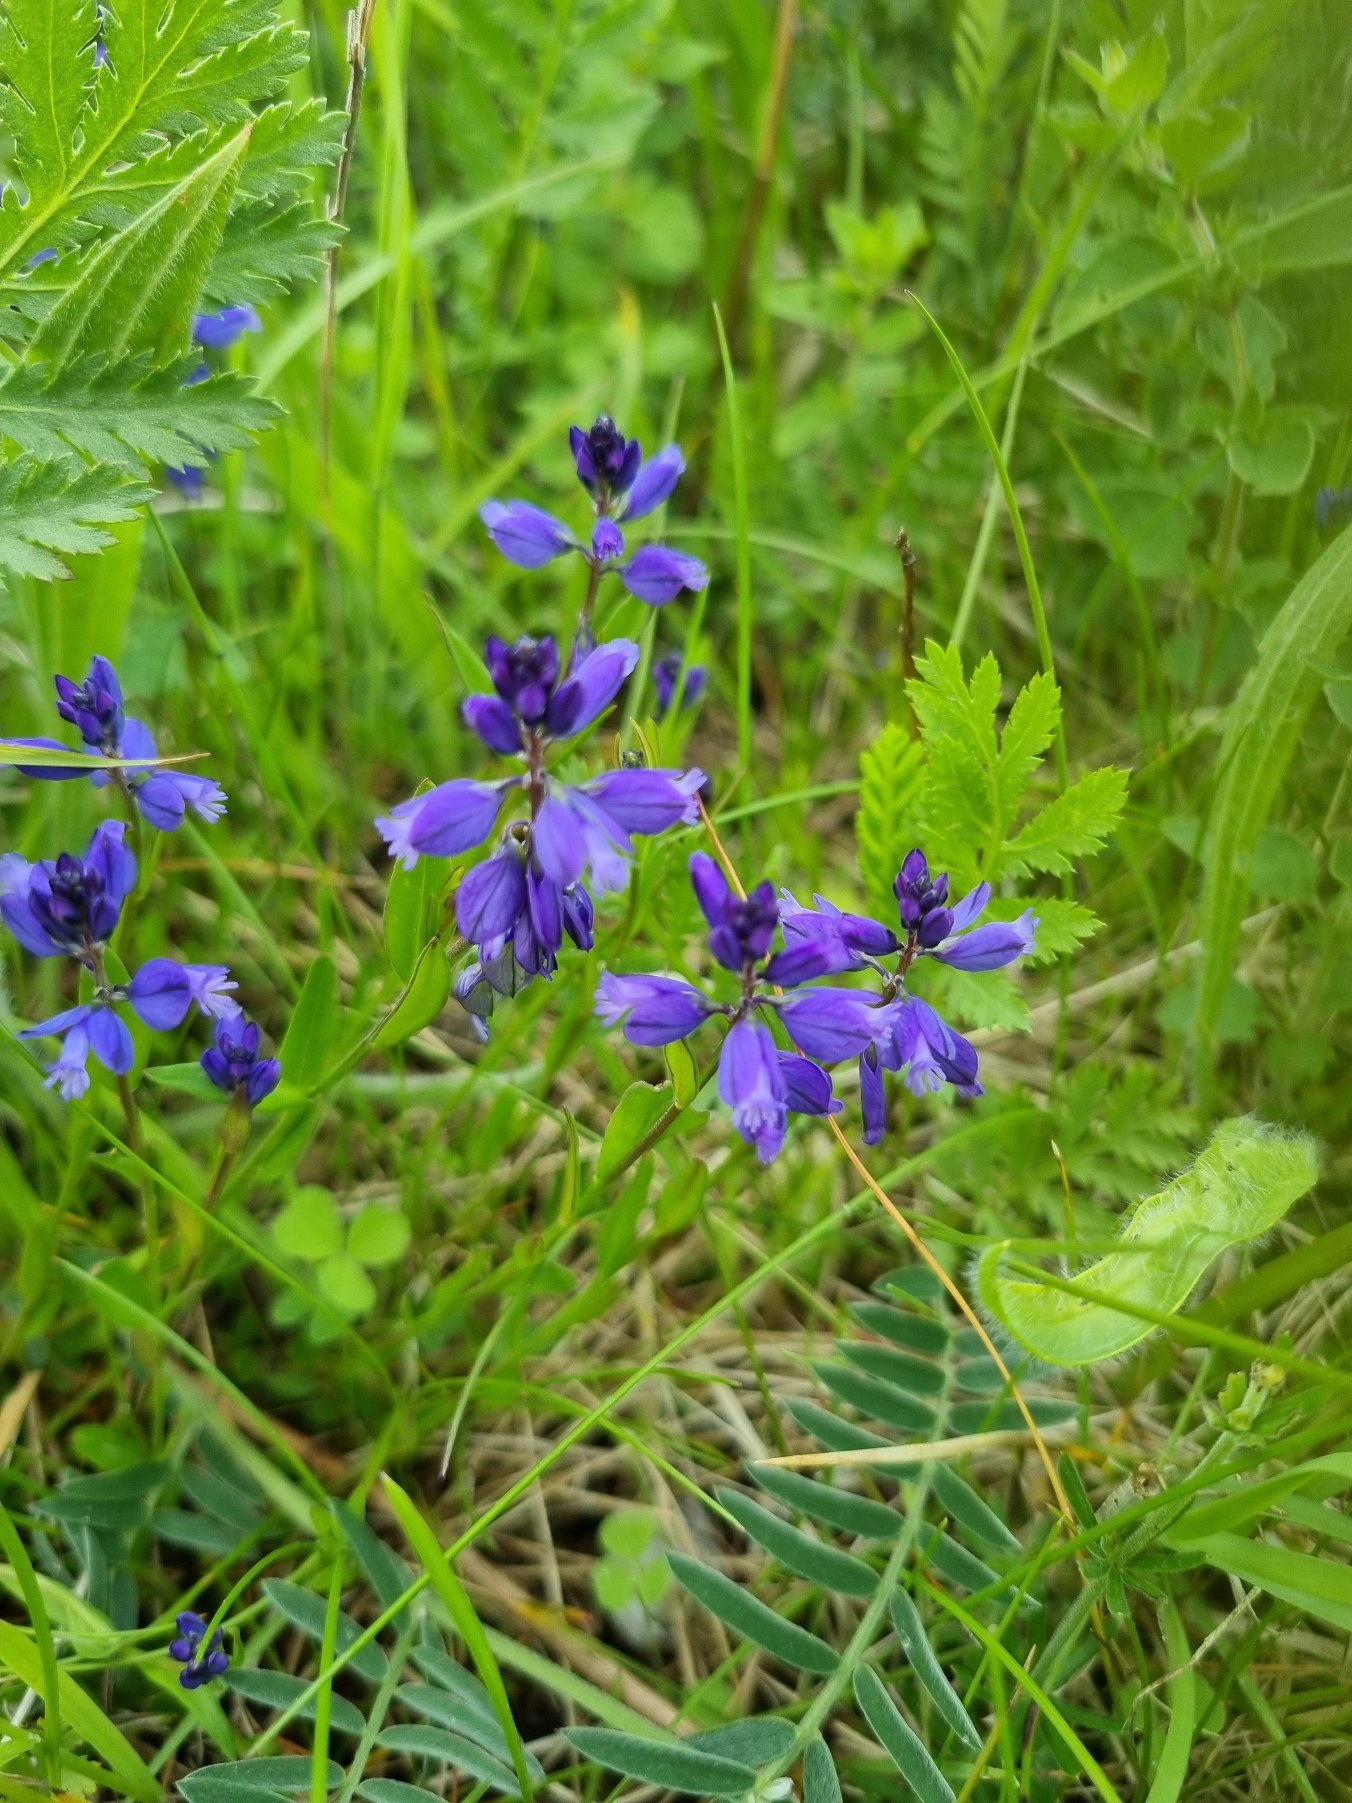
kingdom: Plantae
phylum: Tracheophyta
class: Magnoliopsida
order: Fabales
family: Polygalaceae
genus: Polygala
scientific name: Polygala vulgaris
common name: Almindelig mælkeurt
